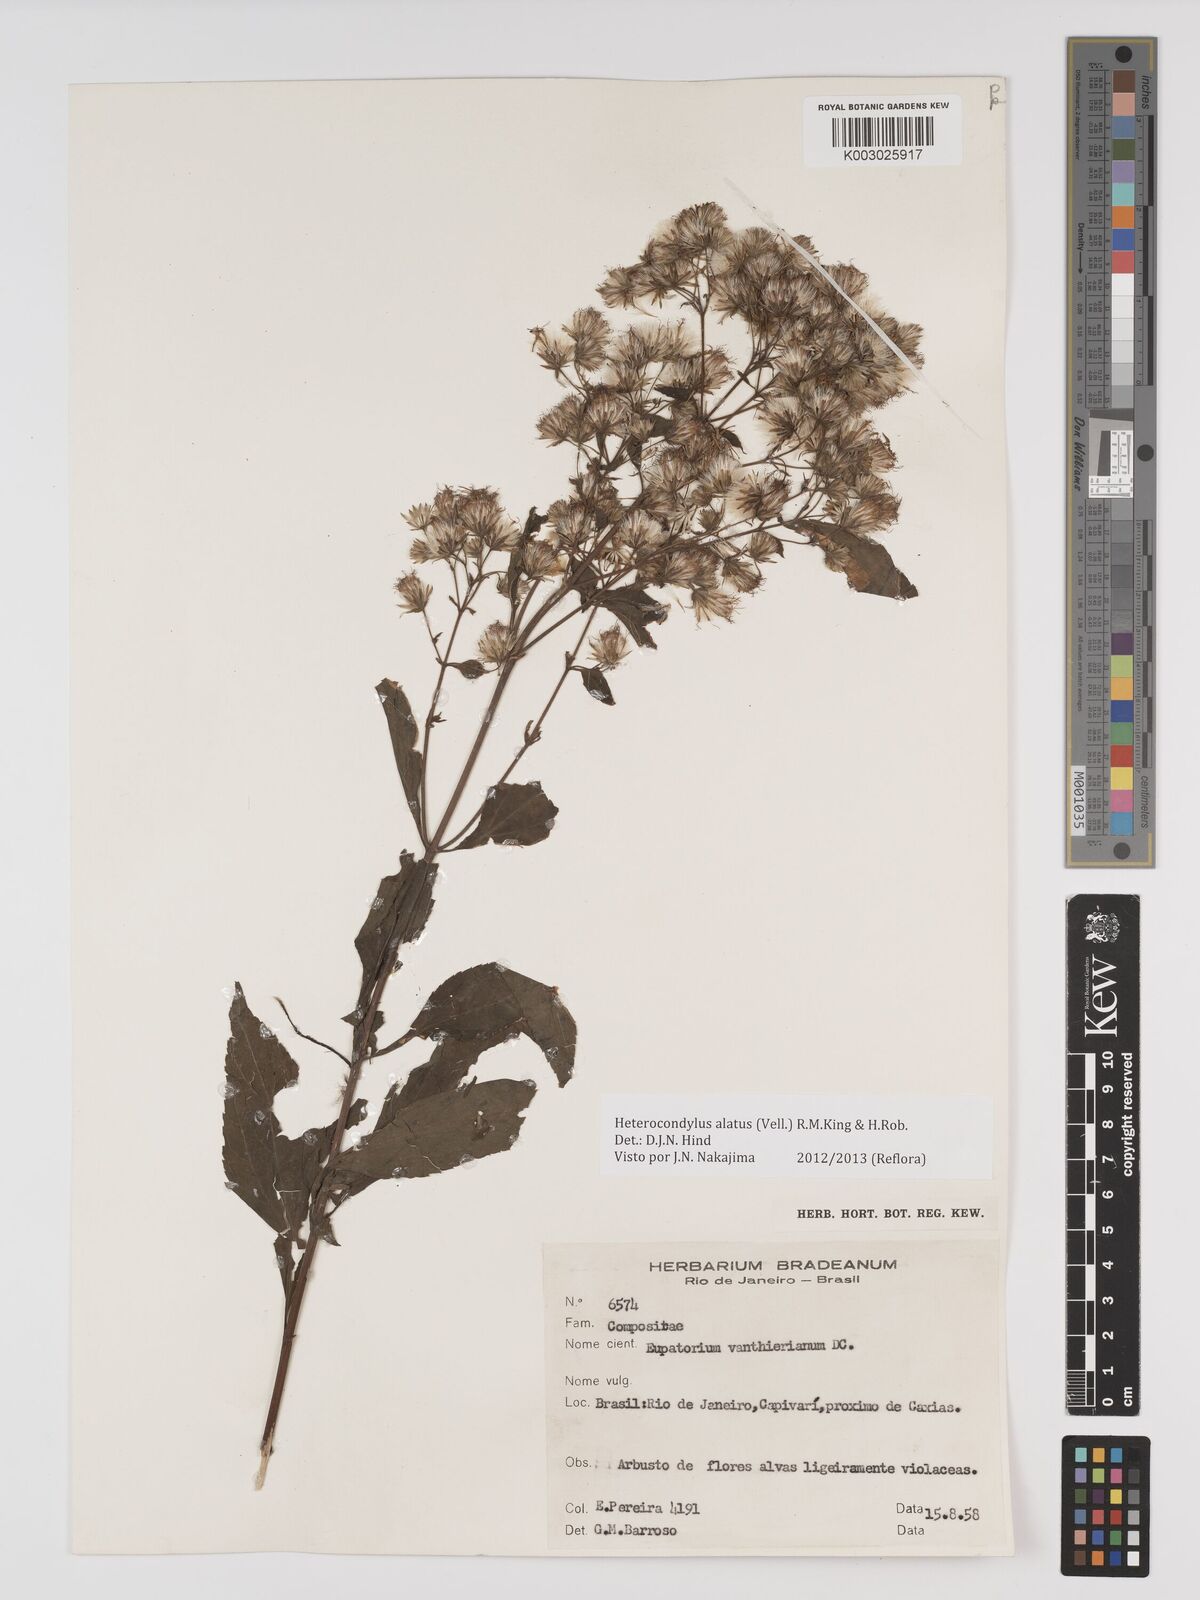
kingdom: Plantae
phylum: Tracheophyta
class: Magnoliopsida
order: Asterales
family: Asteraceae
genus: Heterocondylus
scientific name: Heterocondylus alatus
